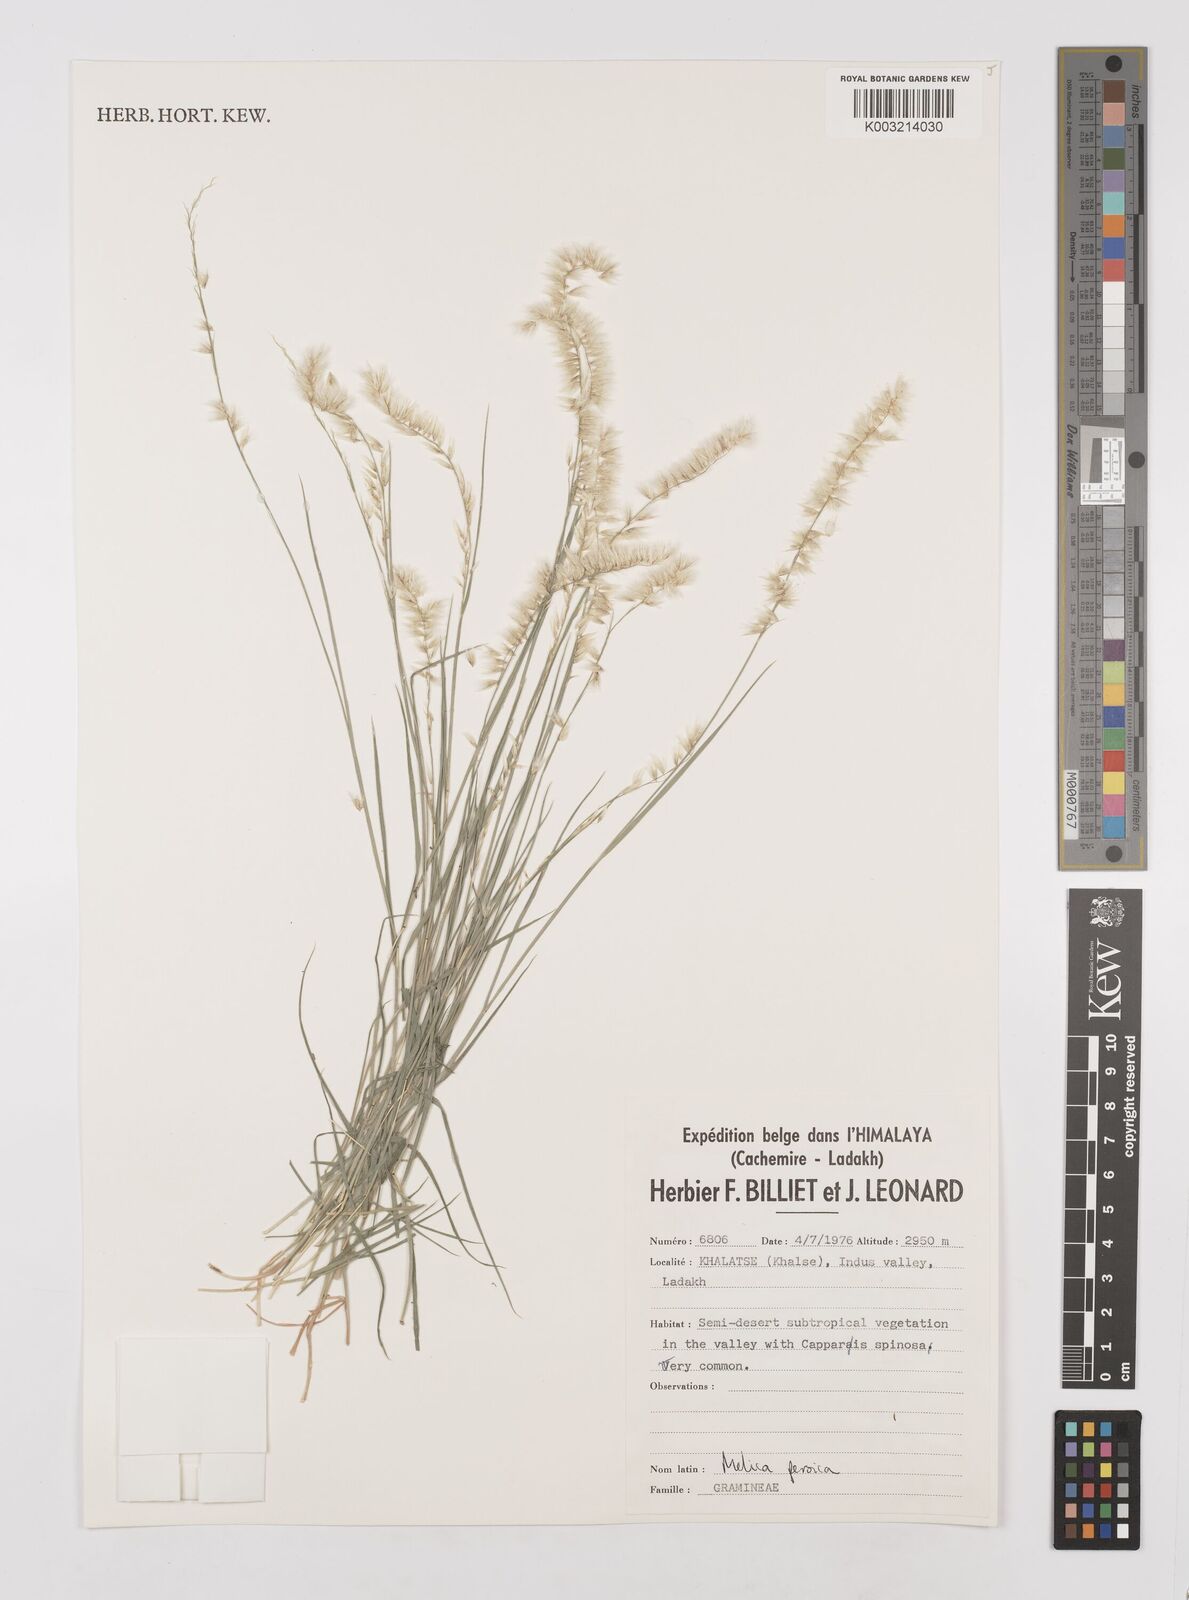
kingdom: Plantae
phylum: Tracheophyta
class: Liliopsida
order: Poales
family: Poaceae
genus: Melica
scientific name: Melica persica
